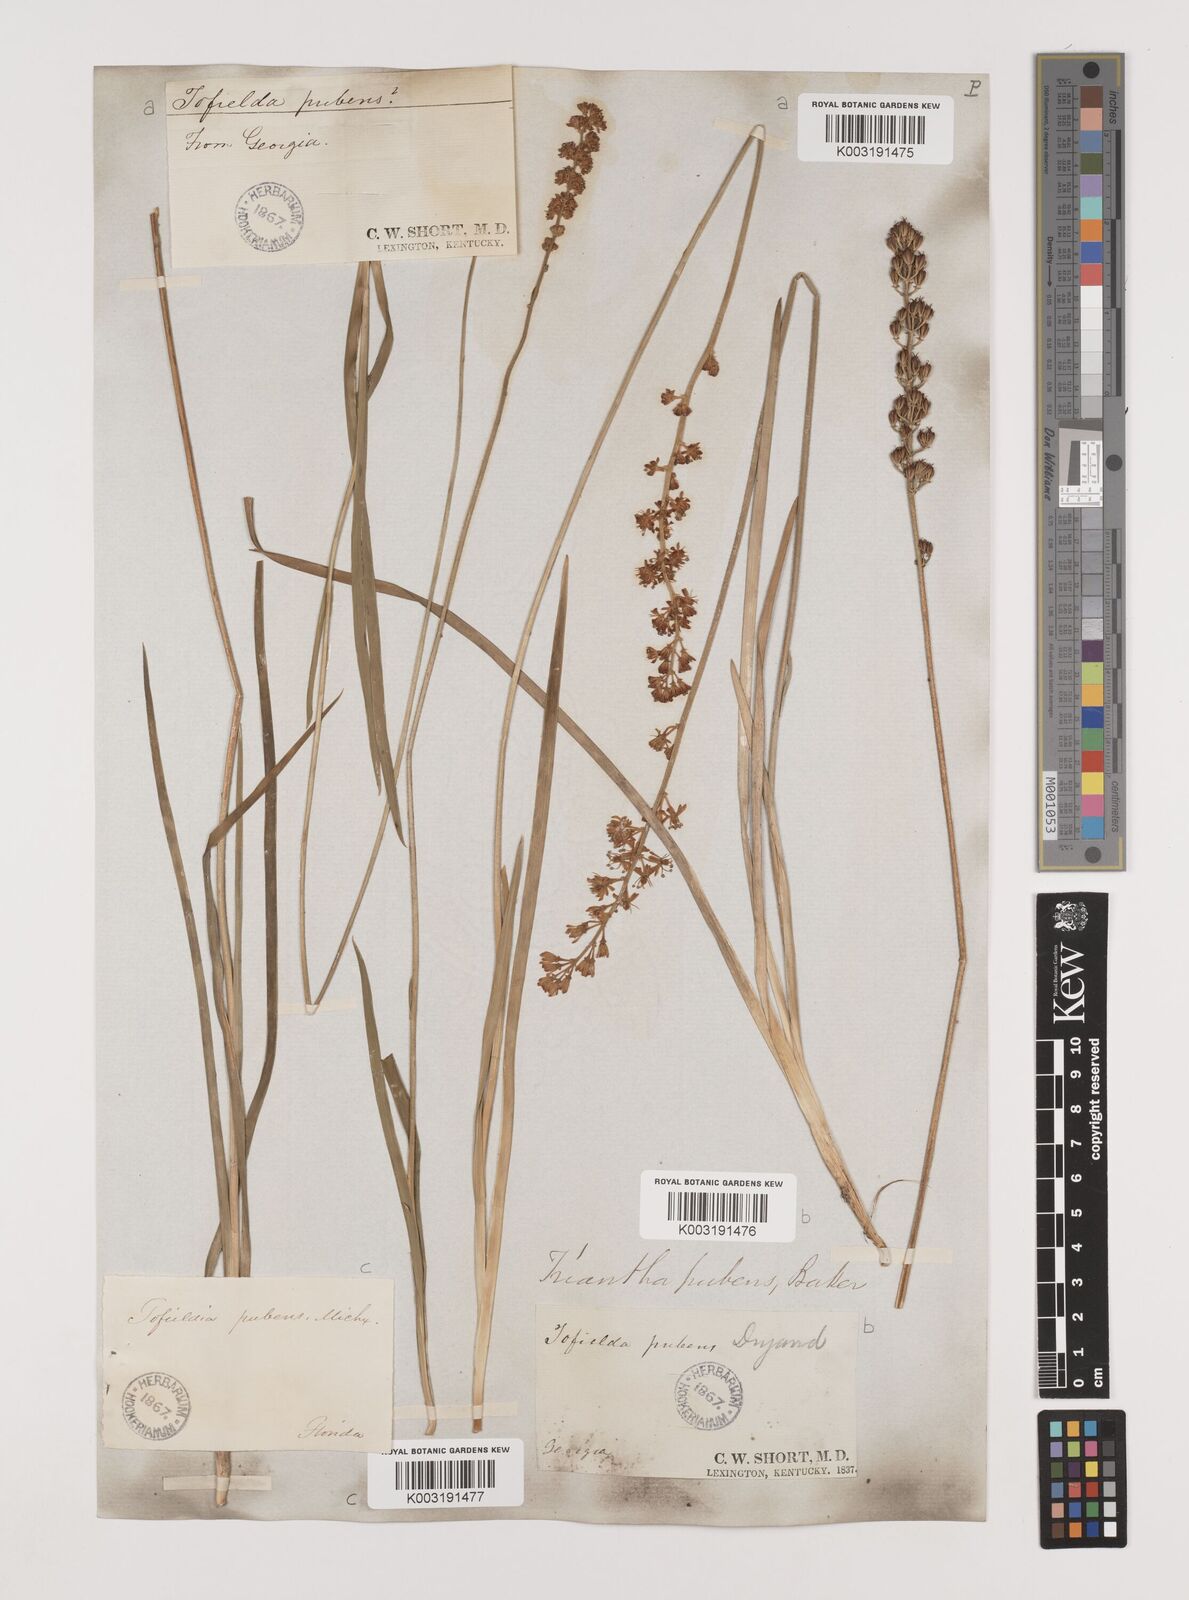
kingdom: Plantae
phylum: Tracheophyta
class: Liliopsida
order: Alismatales
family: Tofieldiaceae
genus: Triantha
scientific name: Triantha racemosa
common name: Coastal false asphodel
